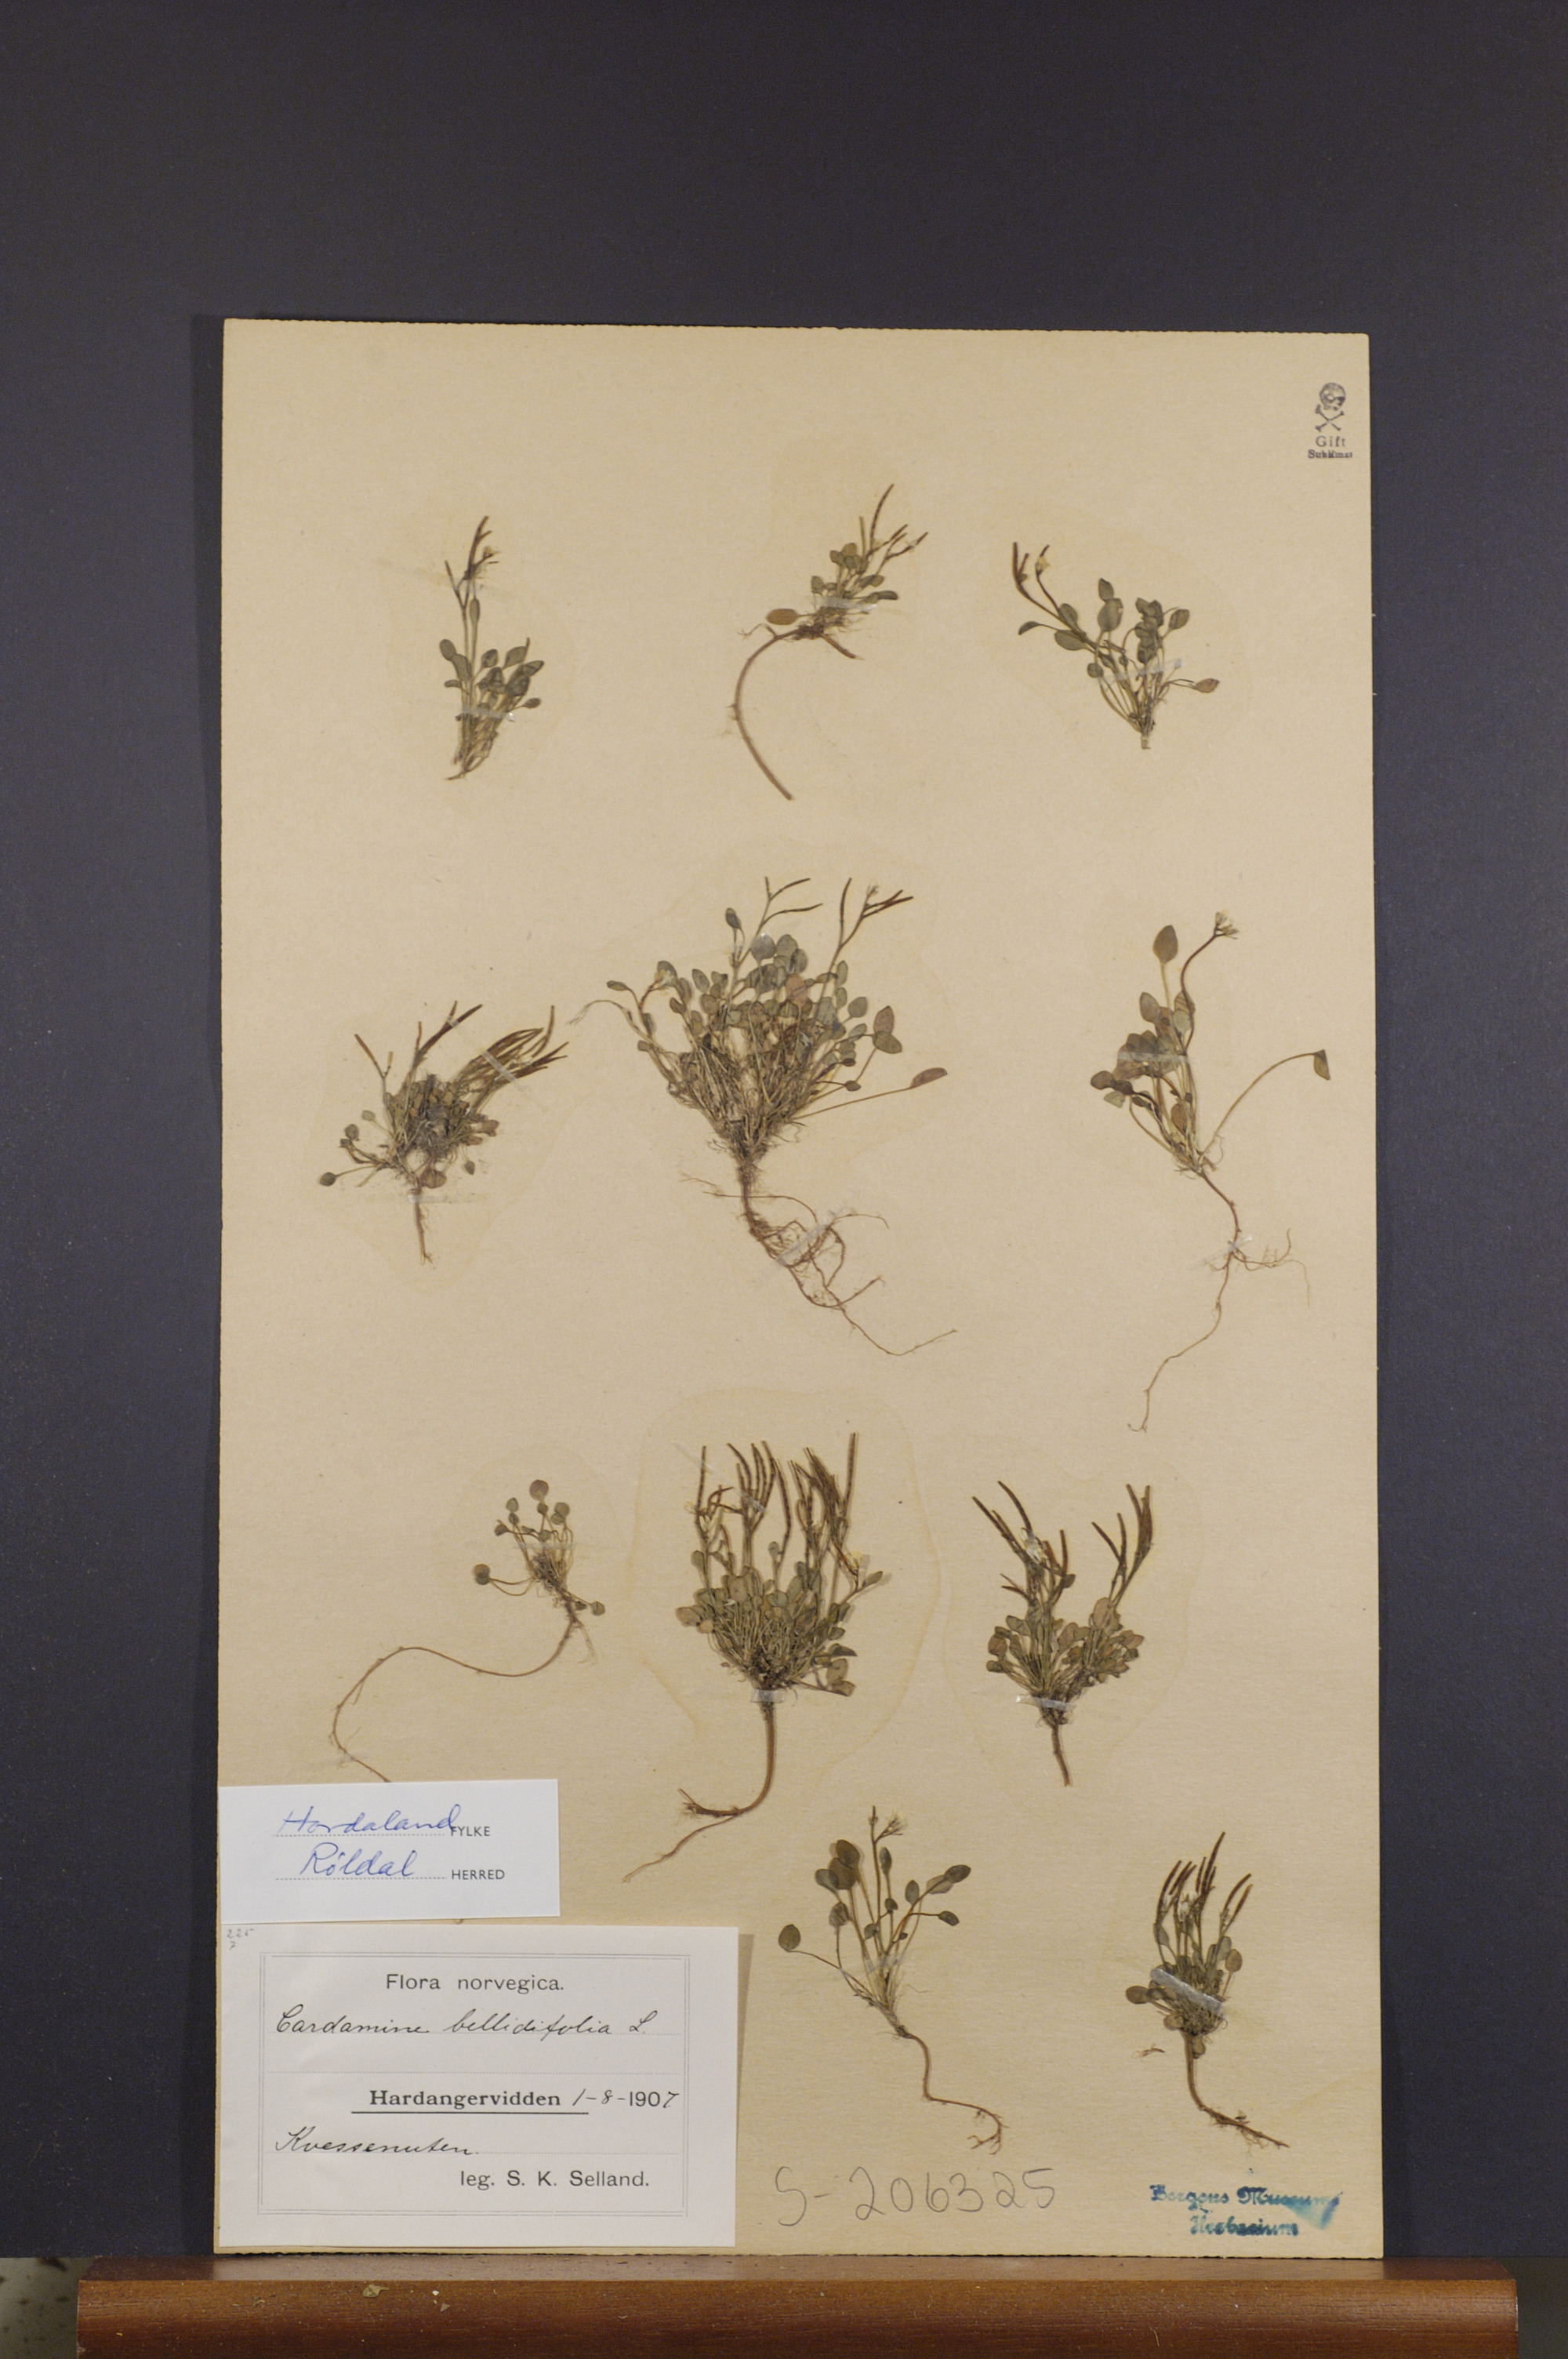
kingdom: Plantae
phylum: Tracheophyta
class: Magnoliopsida
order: Brassicales
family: Brassicaceae
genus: Cardamine
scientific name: Cardamine bellidifolia
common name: Alpine bittercress
